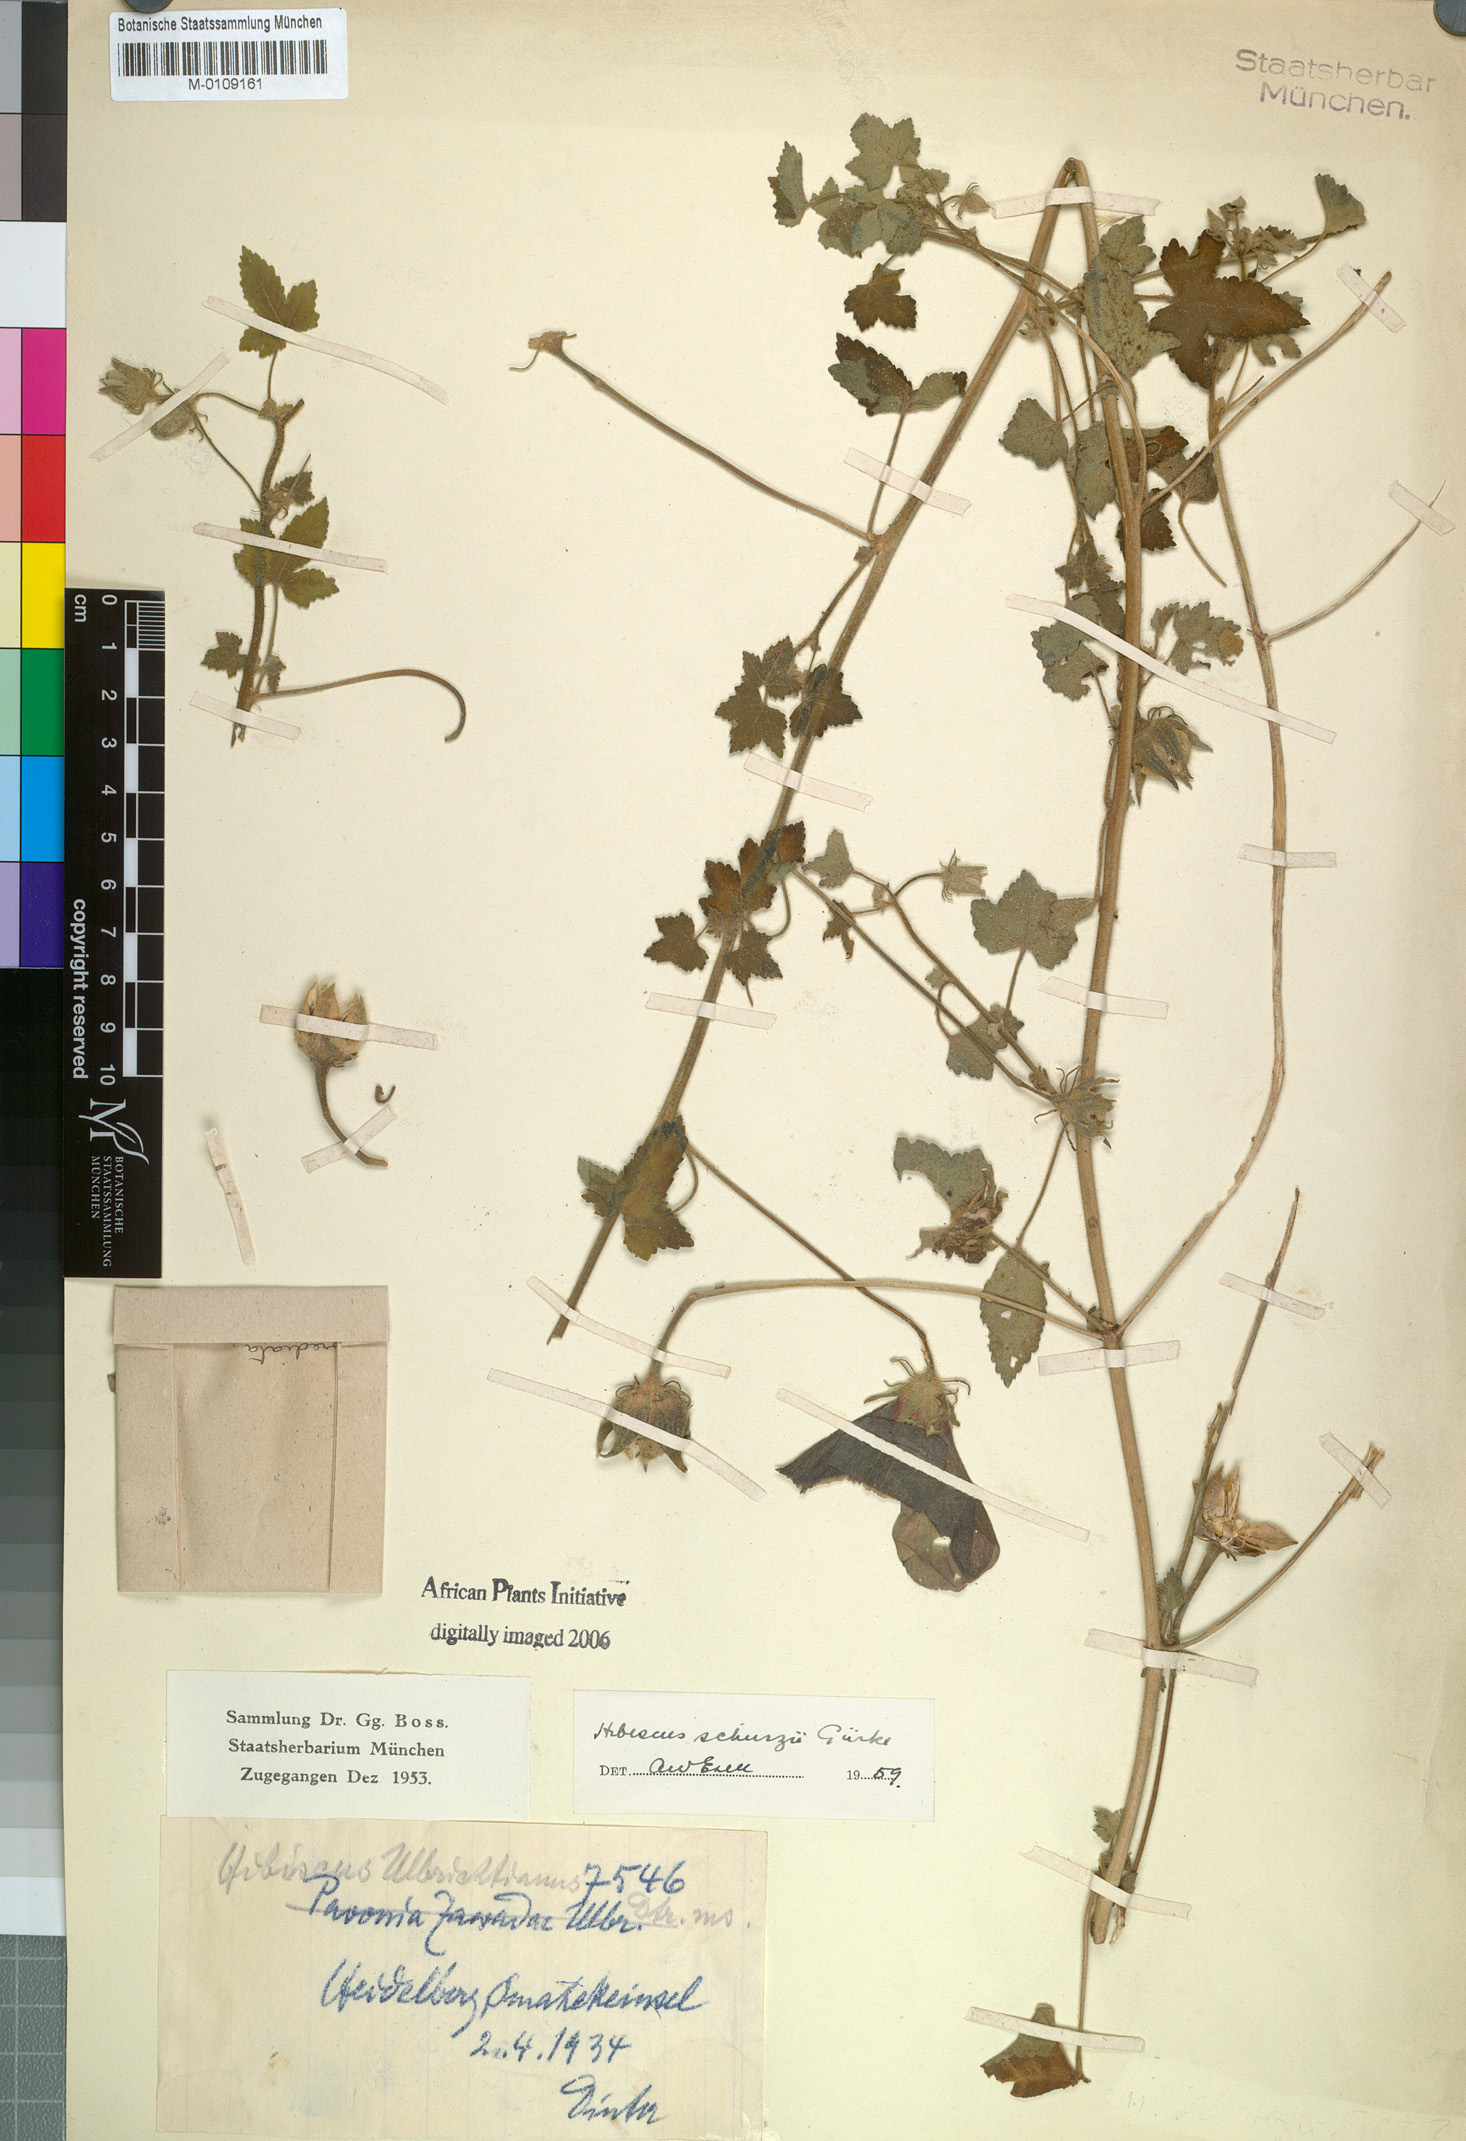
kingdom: Plantae
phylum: Tracheophyta
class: Magnoliopsida
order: Malvales
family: Malvaceae
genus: Hibiscus
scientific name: Hibiscus schinzii
